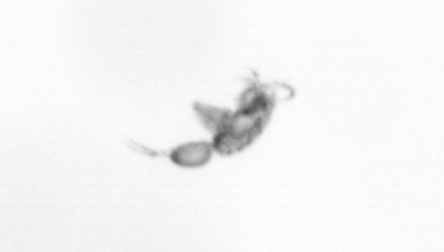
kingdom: Animalia
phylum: Arthropoda
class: Copepoda
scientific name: Copepoda
